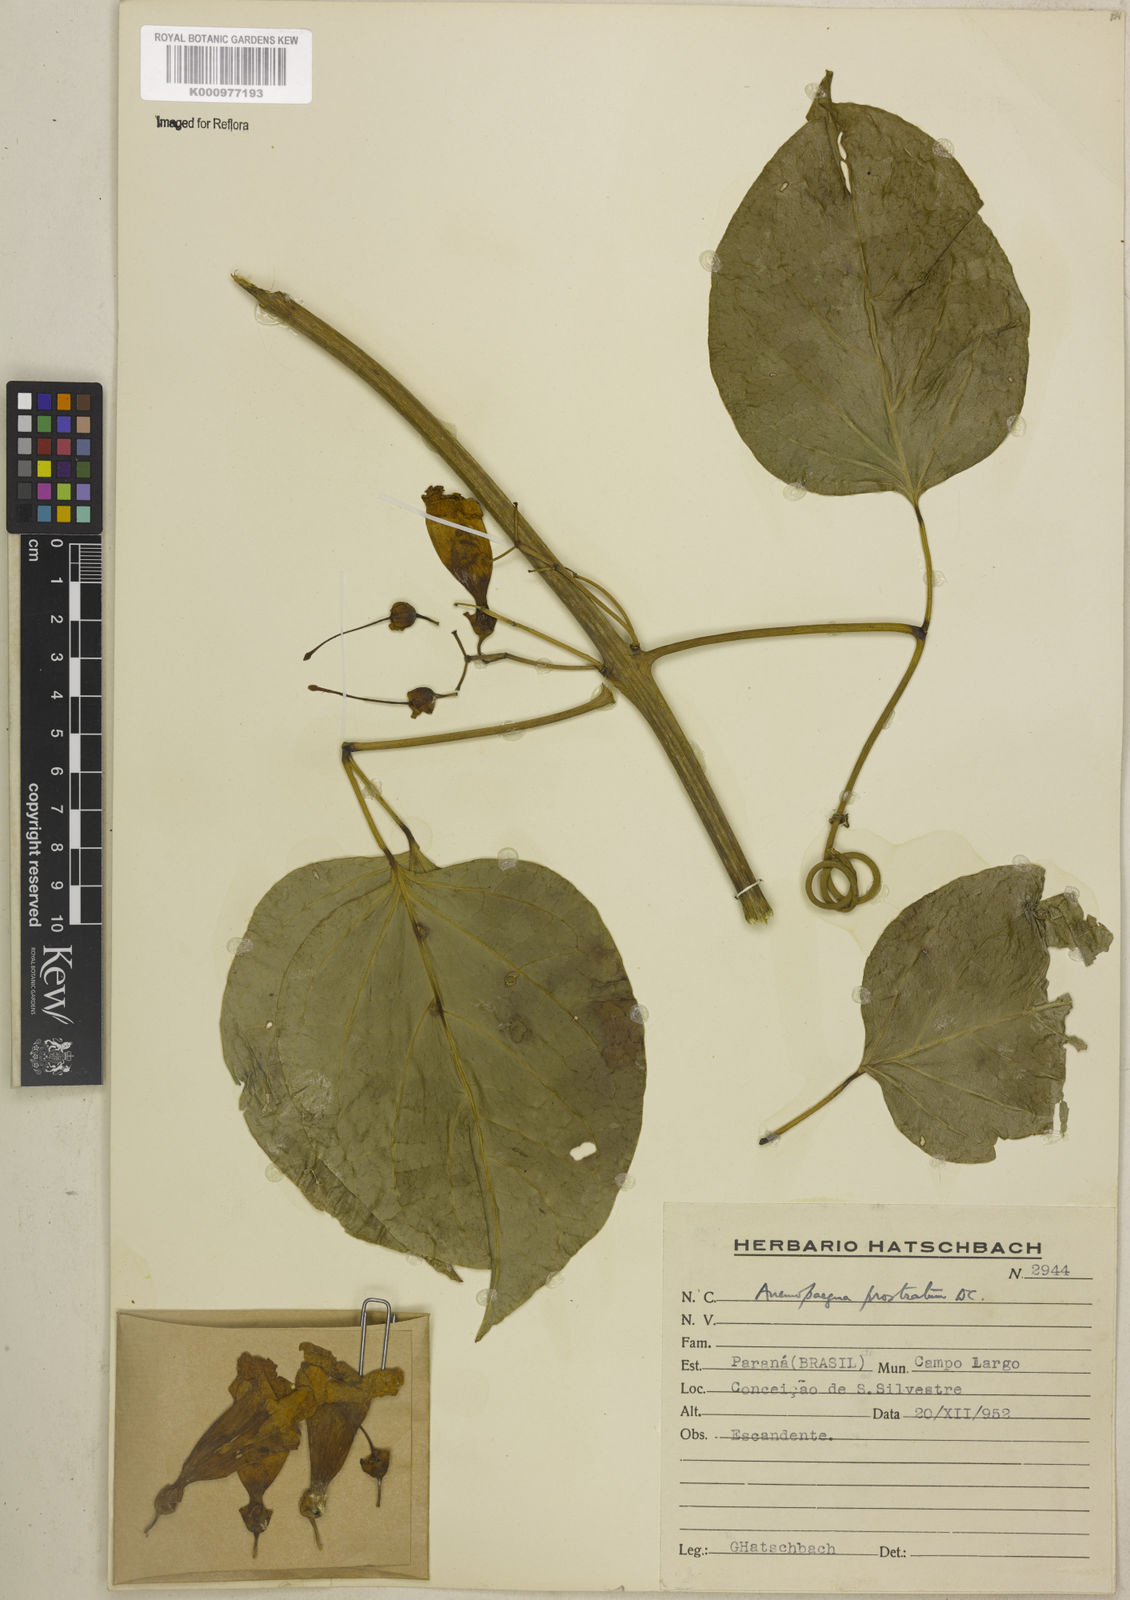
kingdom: Plantae
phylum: Tracheophyta
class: Magnoliopsida
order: Lamiales
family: Bignoniaceae
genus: Anemopaegma
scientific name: Anemopaegma prostratum
